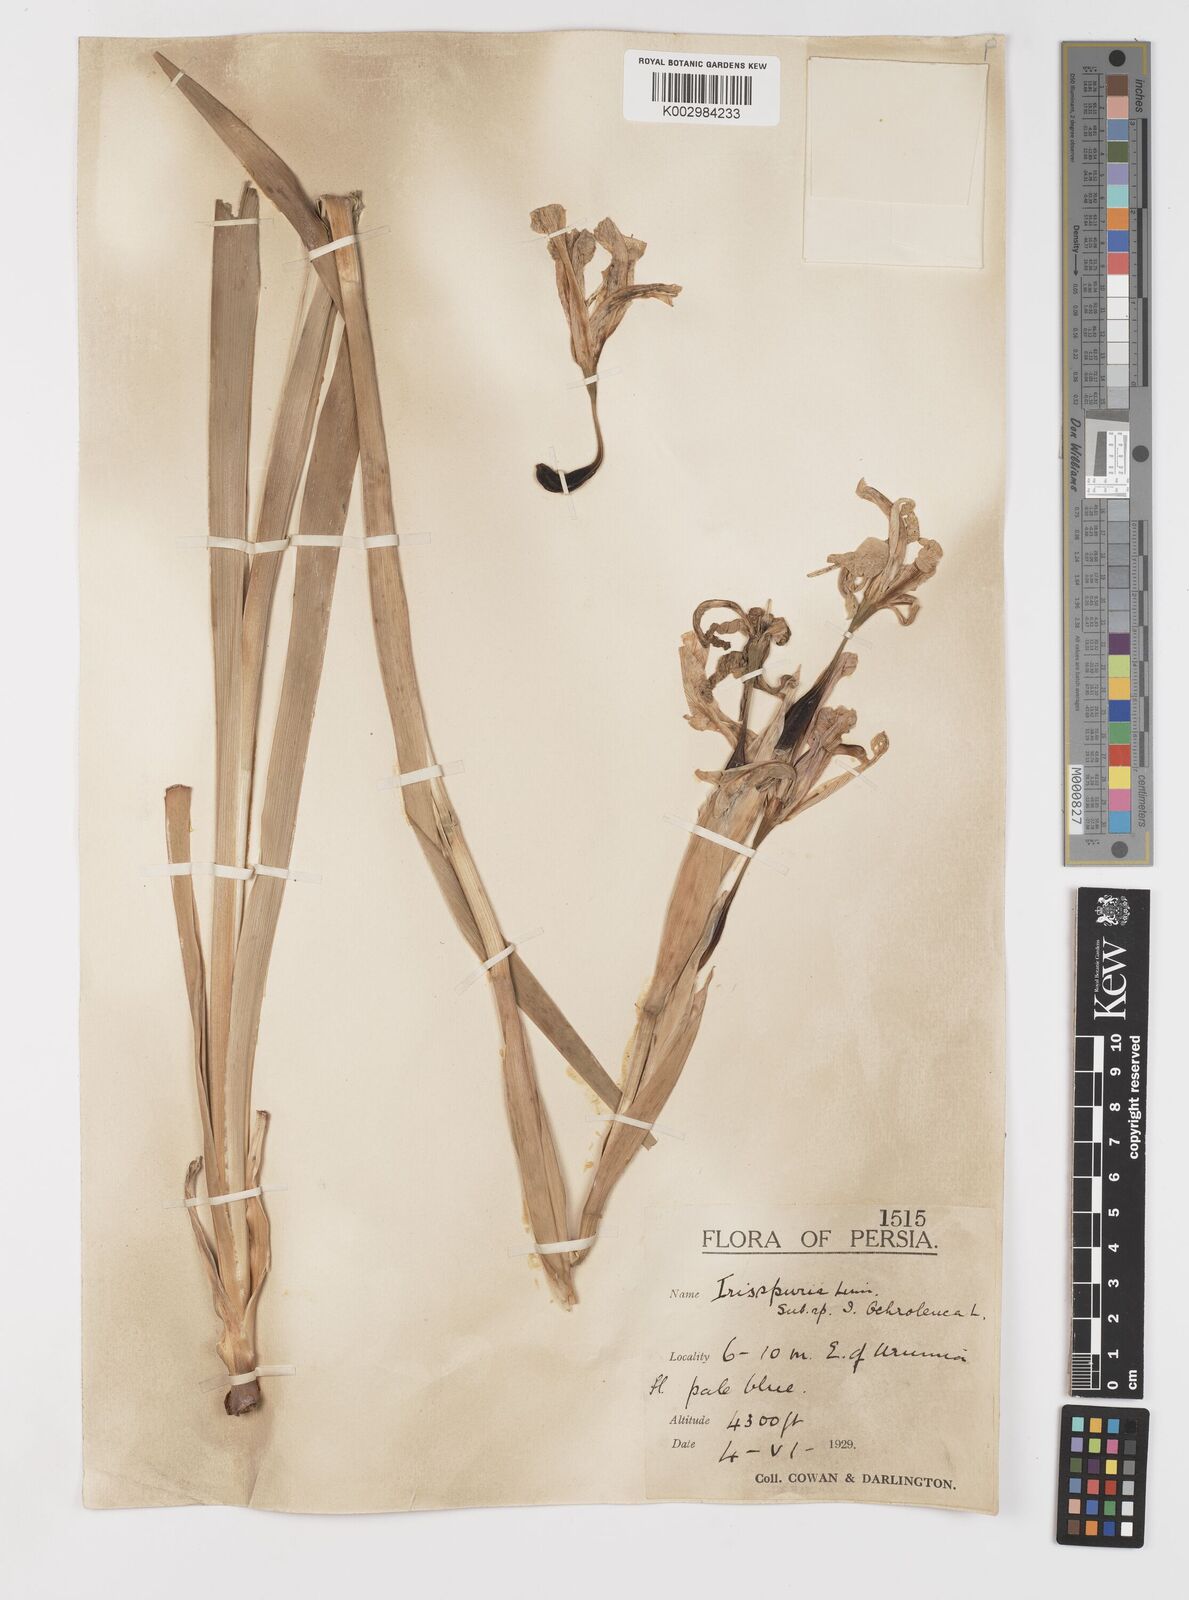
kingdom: Plantae
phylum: Tracheophyta
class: Liliopsida
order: Asparagales
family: Iridaceae
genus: Iris
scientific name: Iris spuria
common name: Blue iris
